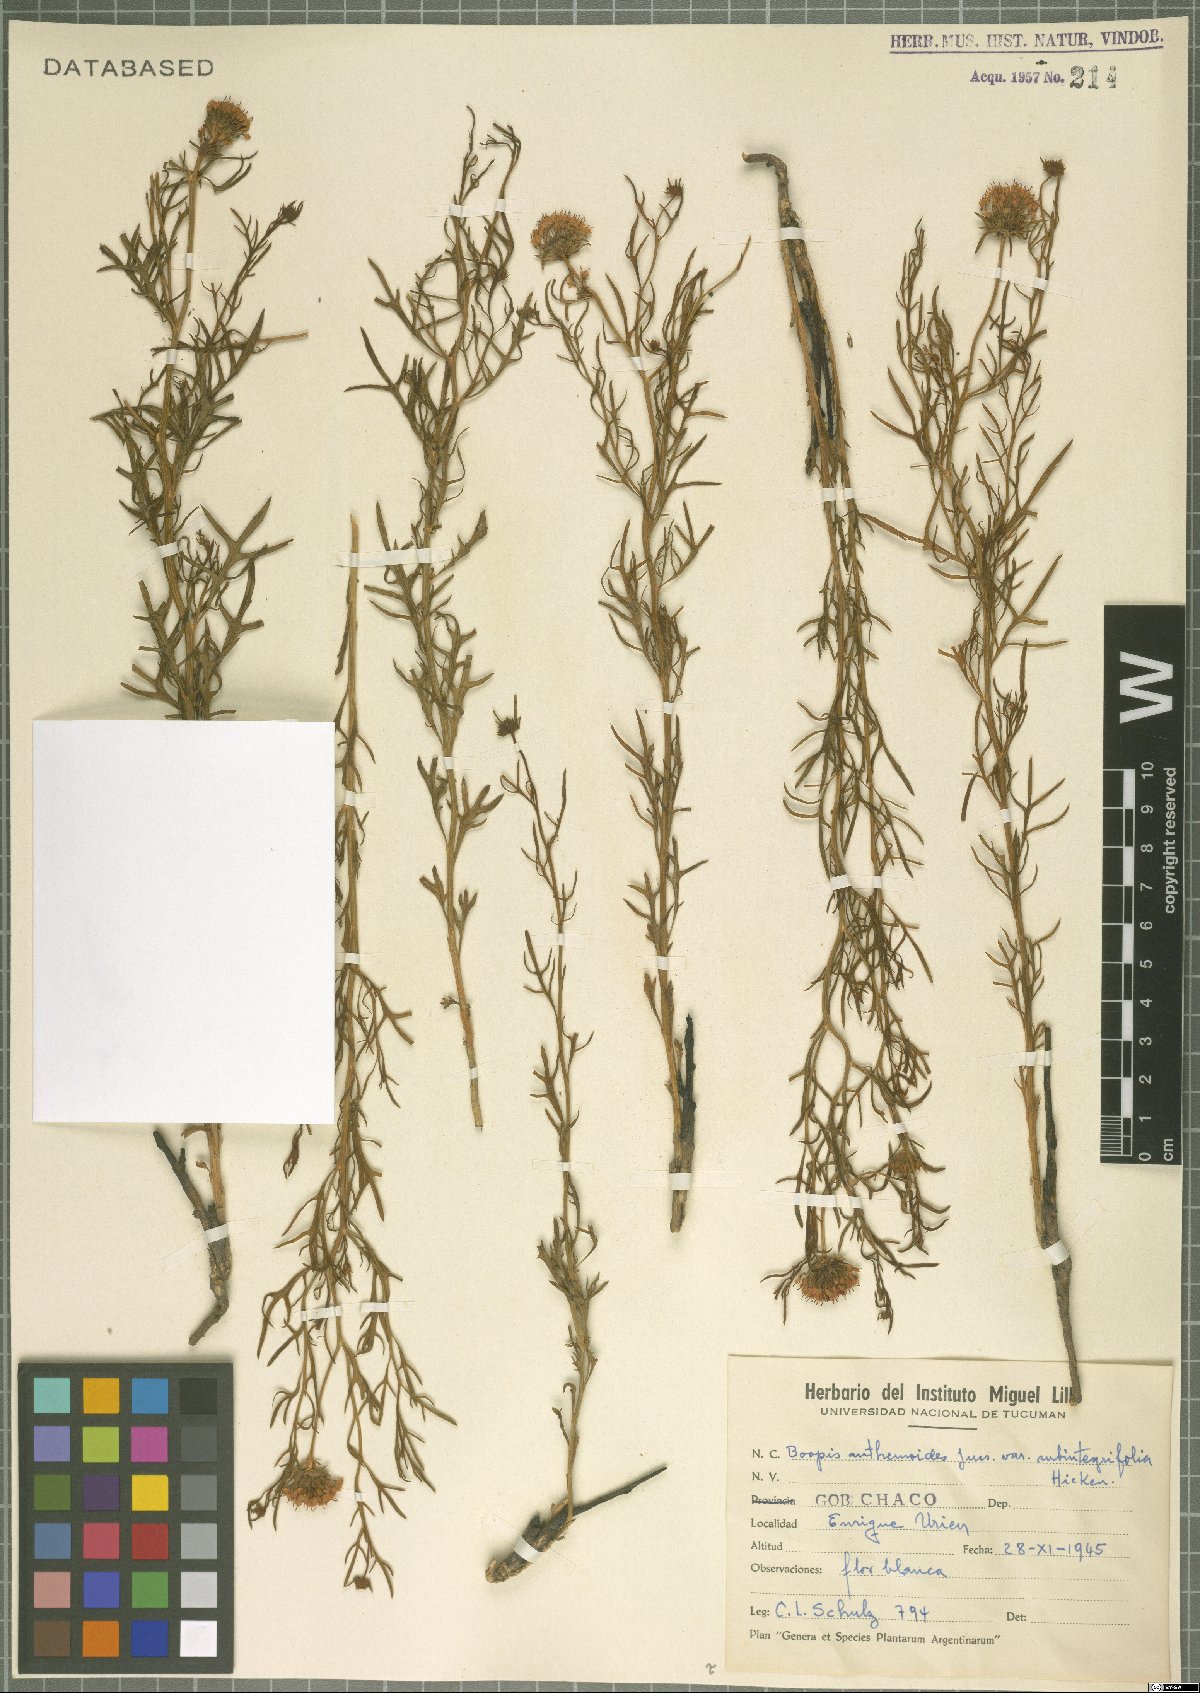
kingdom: Plantae
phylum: Tracheophyta
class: Magnoliopsida
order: Asterales
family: Calyceraceae
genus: Boopis
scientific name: Boopis anthemoides
